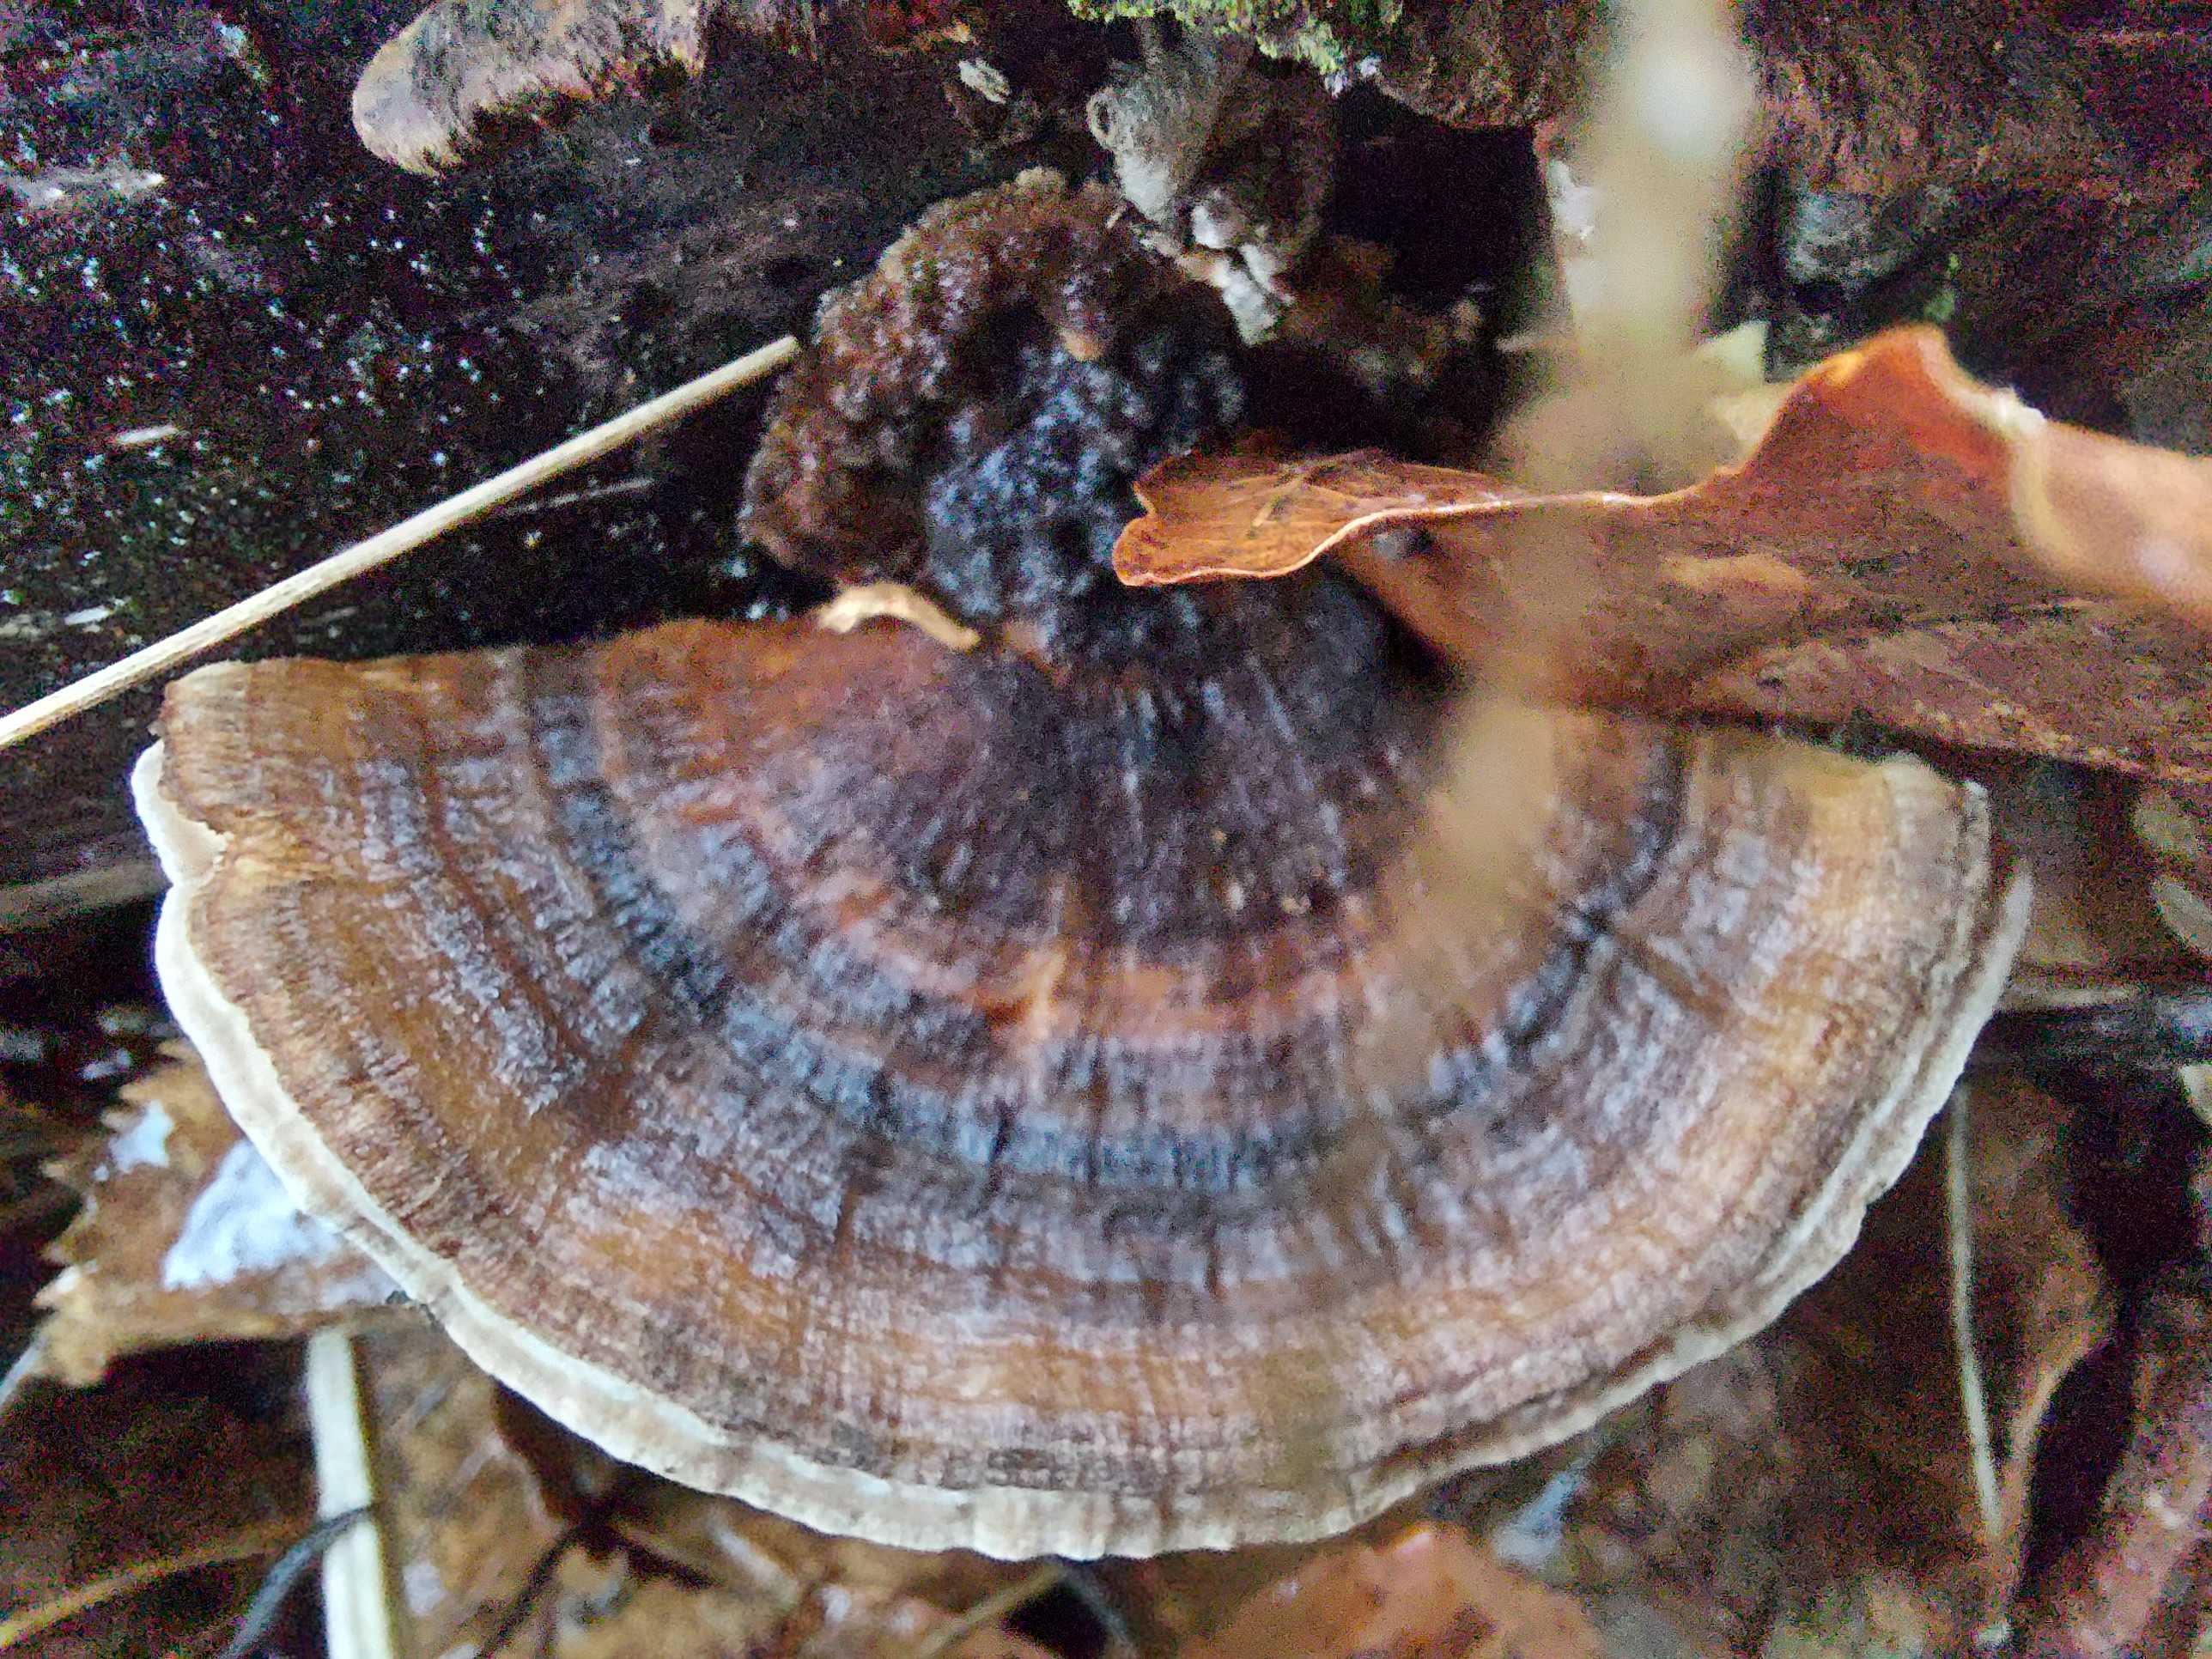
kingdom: Fungi
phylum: Basidiomycota
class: Agaricomycetes
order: Polyporales
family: Polyporaceae
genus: Trametes
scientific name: Trametes versicolor
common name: broget læderporesvamp
